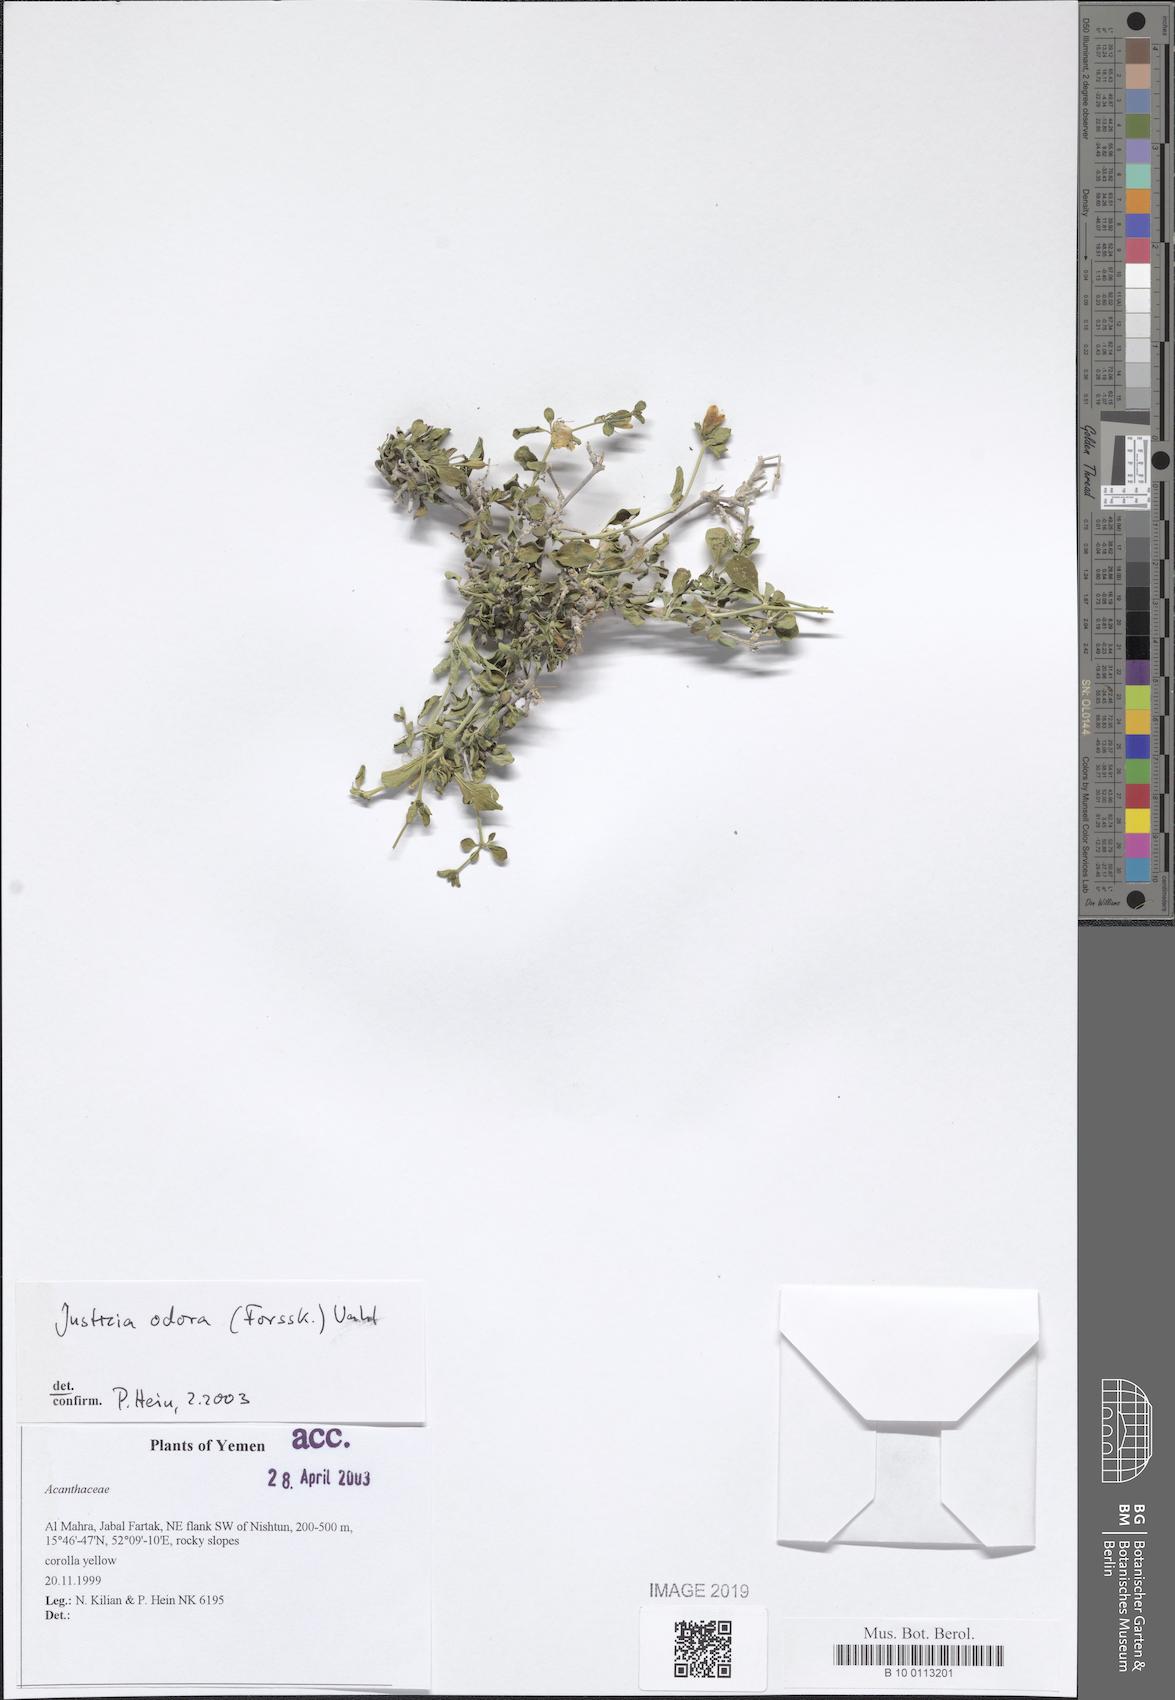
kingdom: Plantae
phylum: Tracheophyta
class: Magnoliopsida
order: Lamiales
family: Acanthaceae
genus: Justicia
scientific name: Justicia odora
